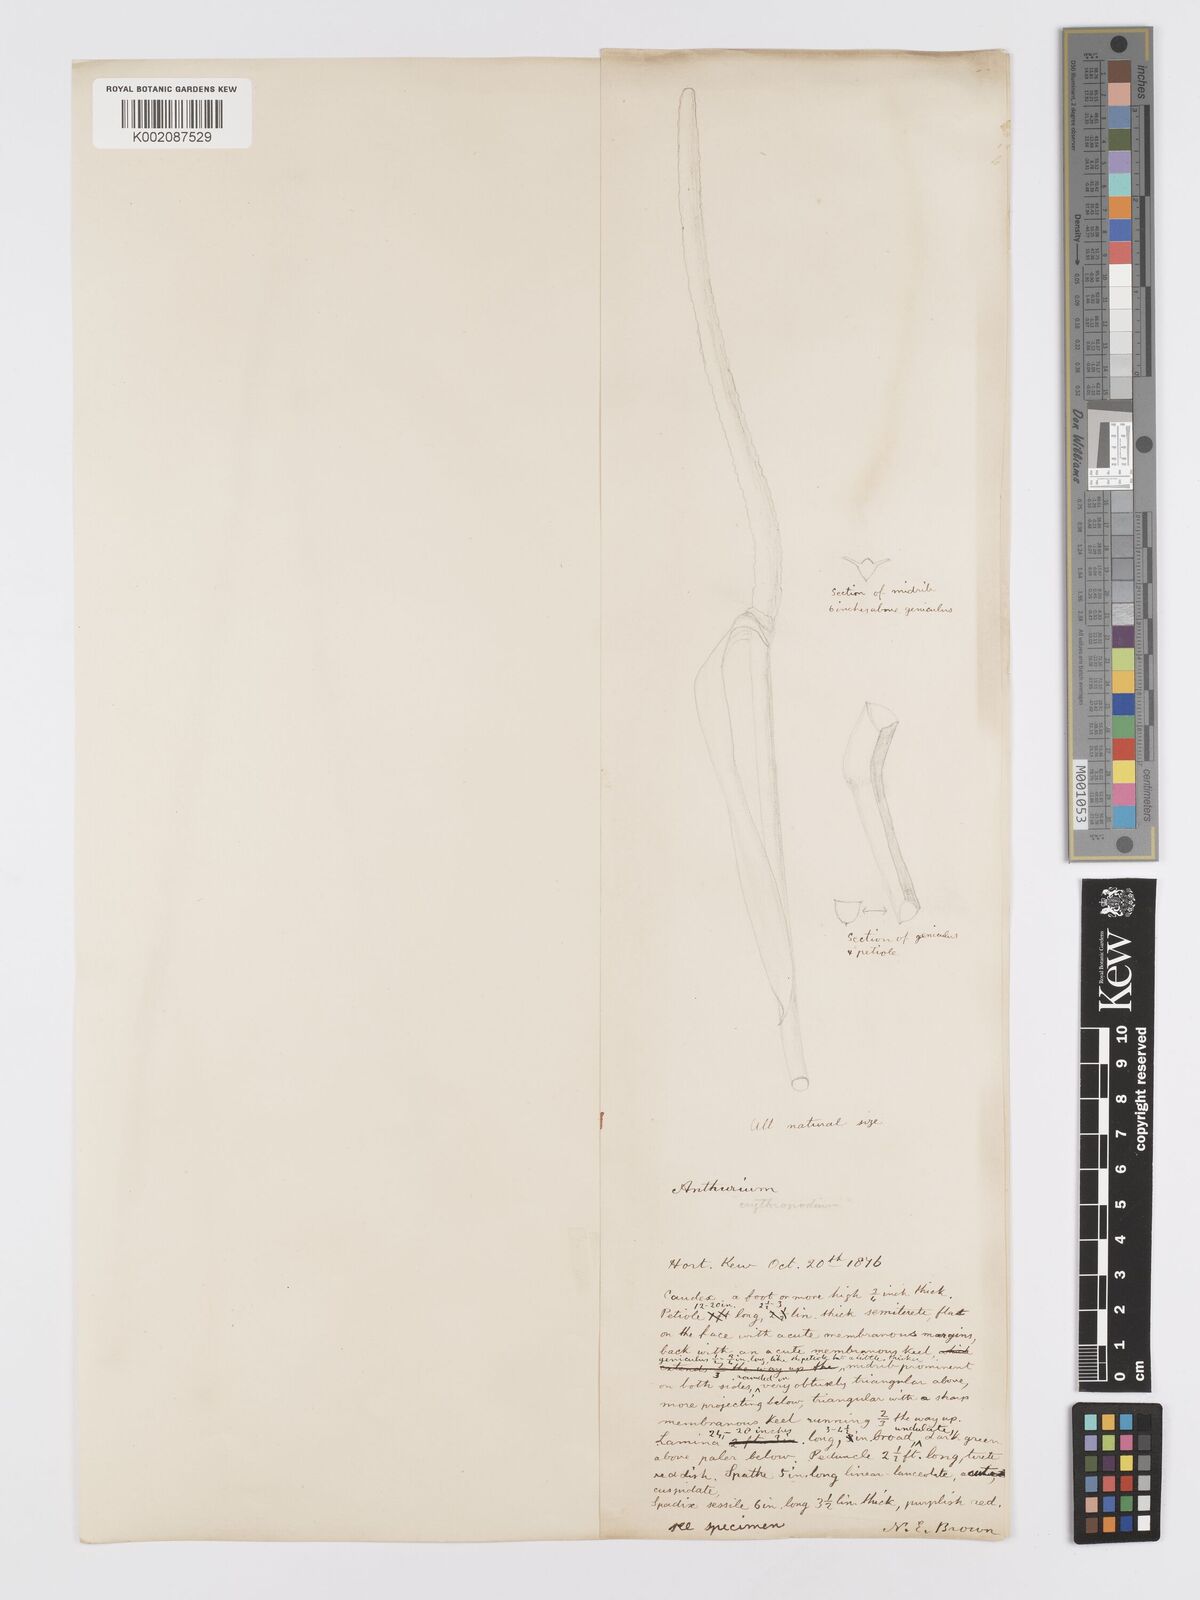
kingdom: Plantae
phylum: Tracheophyta
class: Liliopsida
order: Alismatales
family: Araceae
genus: Anthurium
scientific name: Anthurium intermedium
